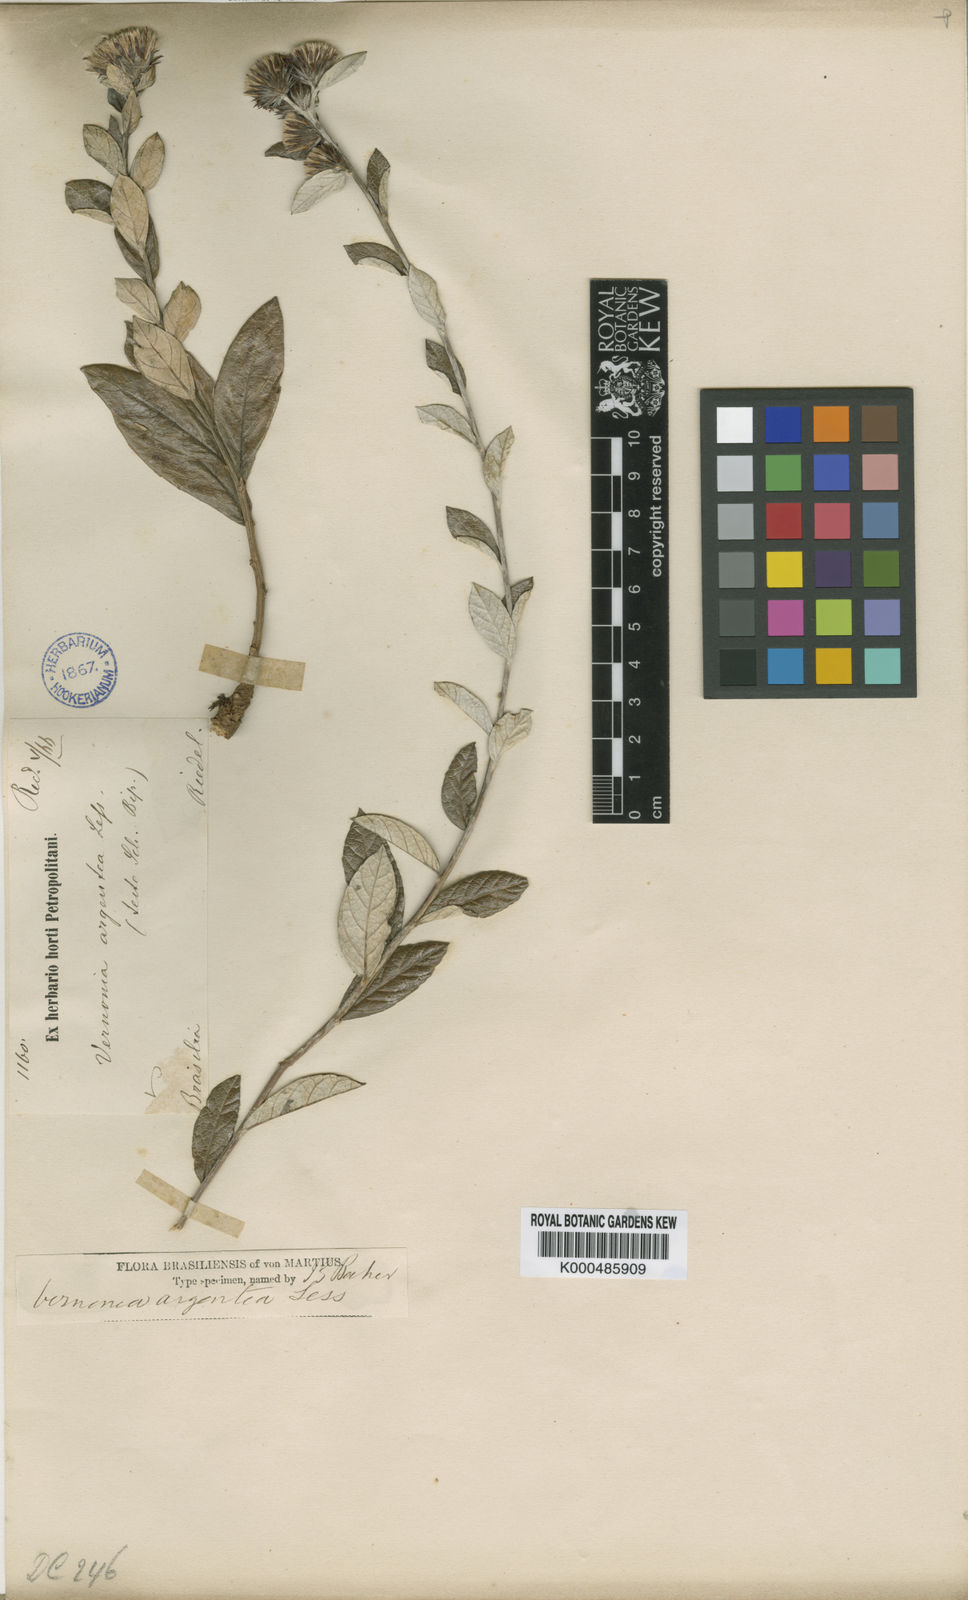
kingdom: Plantae
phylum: Tracheophyta
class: Magnoliopsida
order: Asterales
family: Asteraceae
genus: Lessingianthus
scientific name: Lessingianthus argenteus
